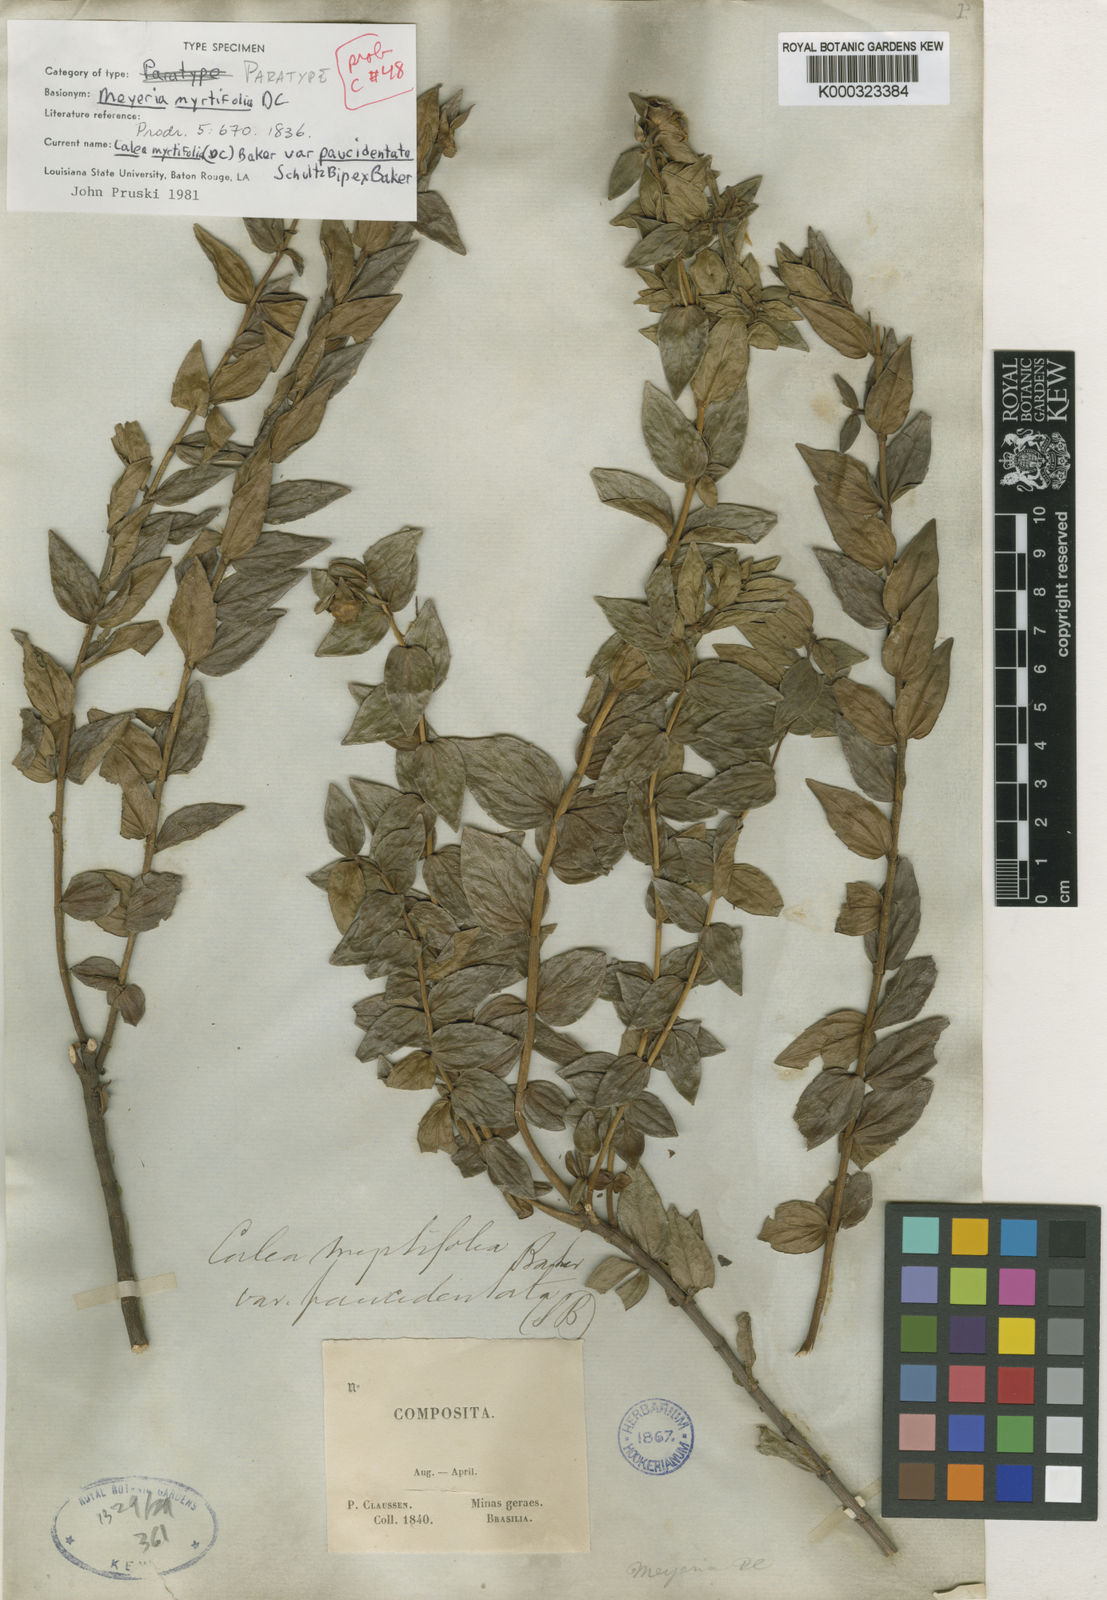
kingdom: Plantae
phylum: Tracheophyta
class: Magnoliopsida
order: Asterales
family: Asteraceae
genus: Calea
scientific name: Calea
